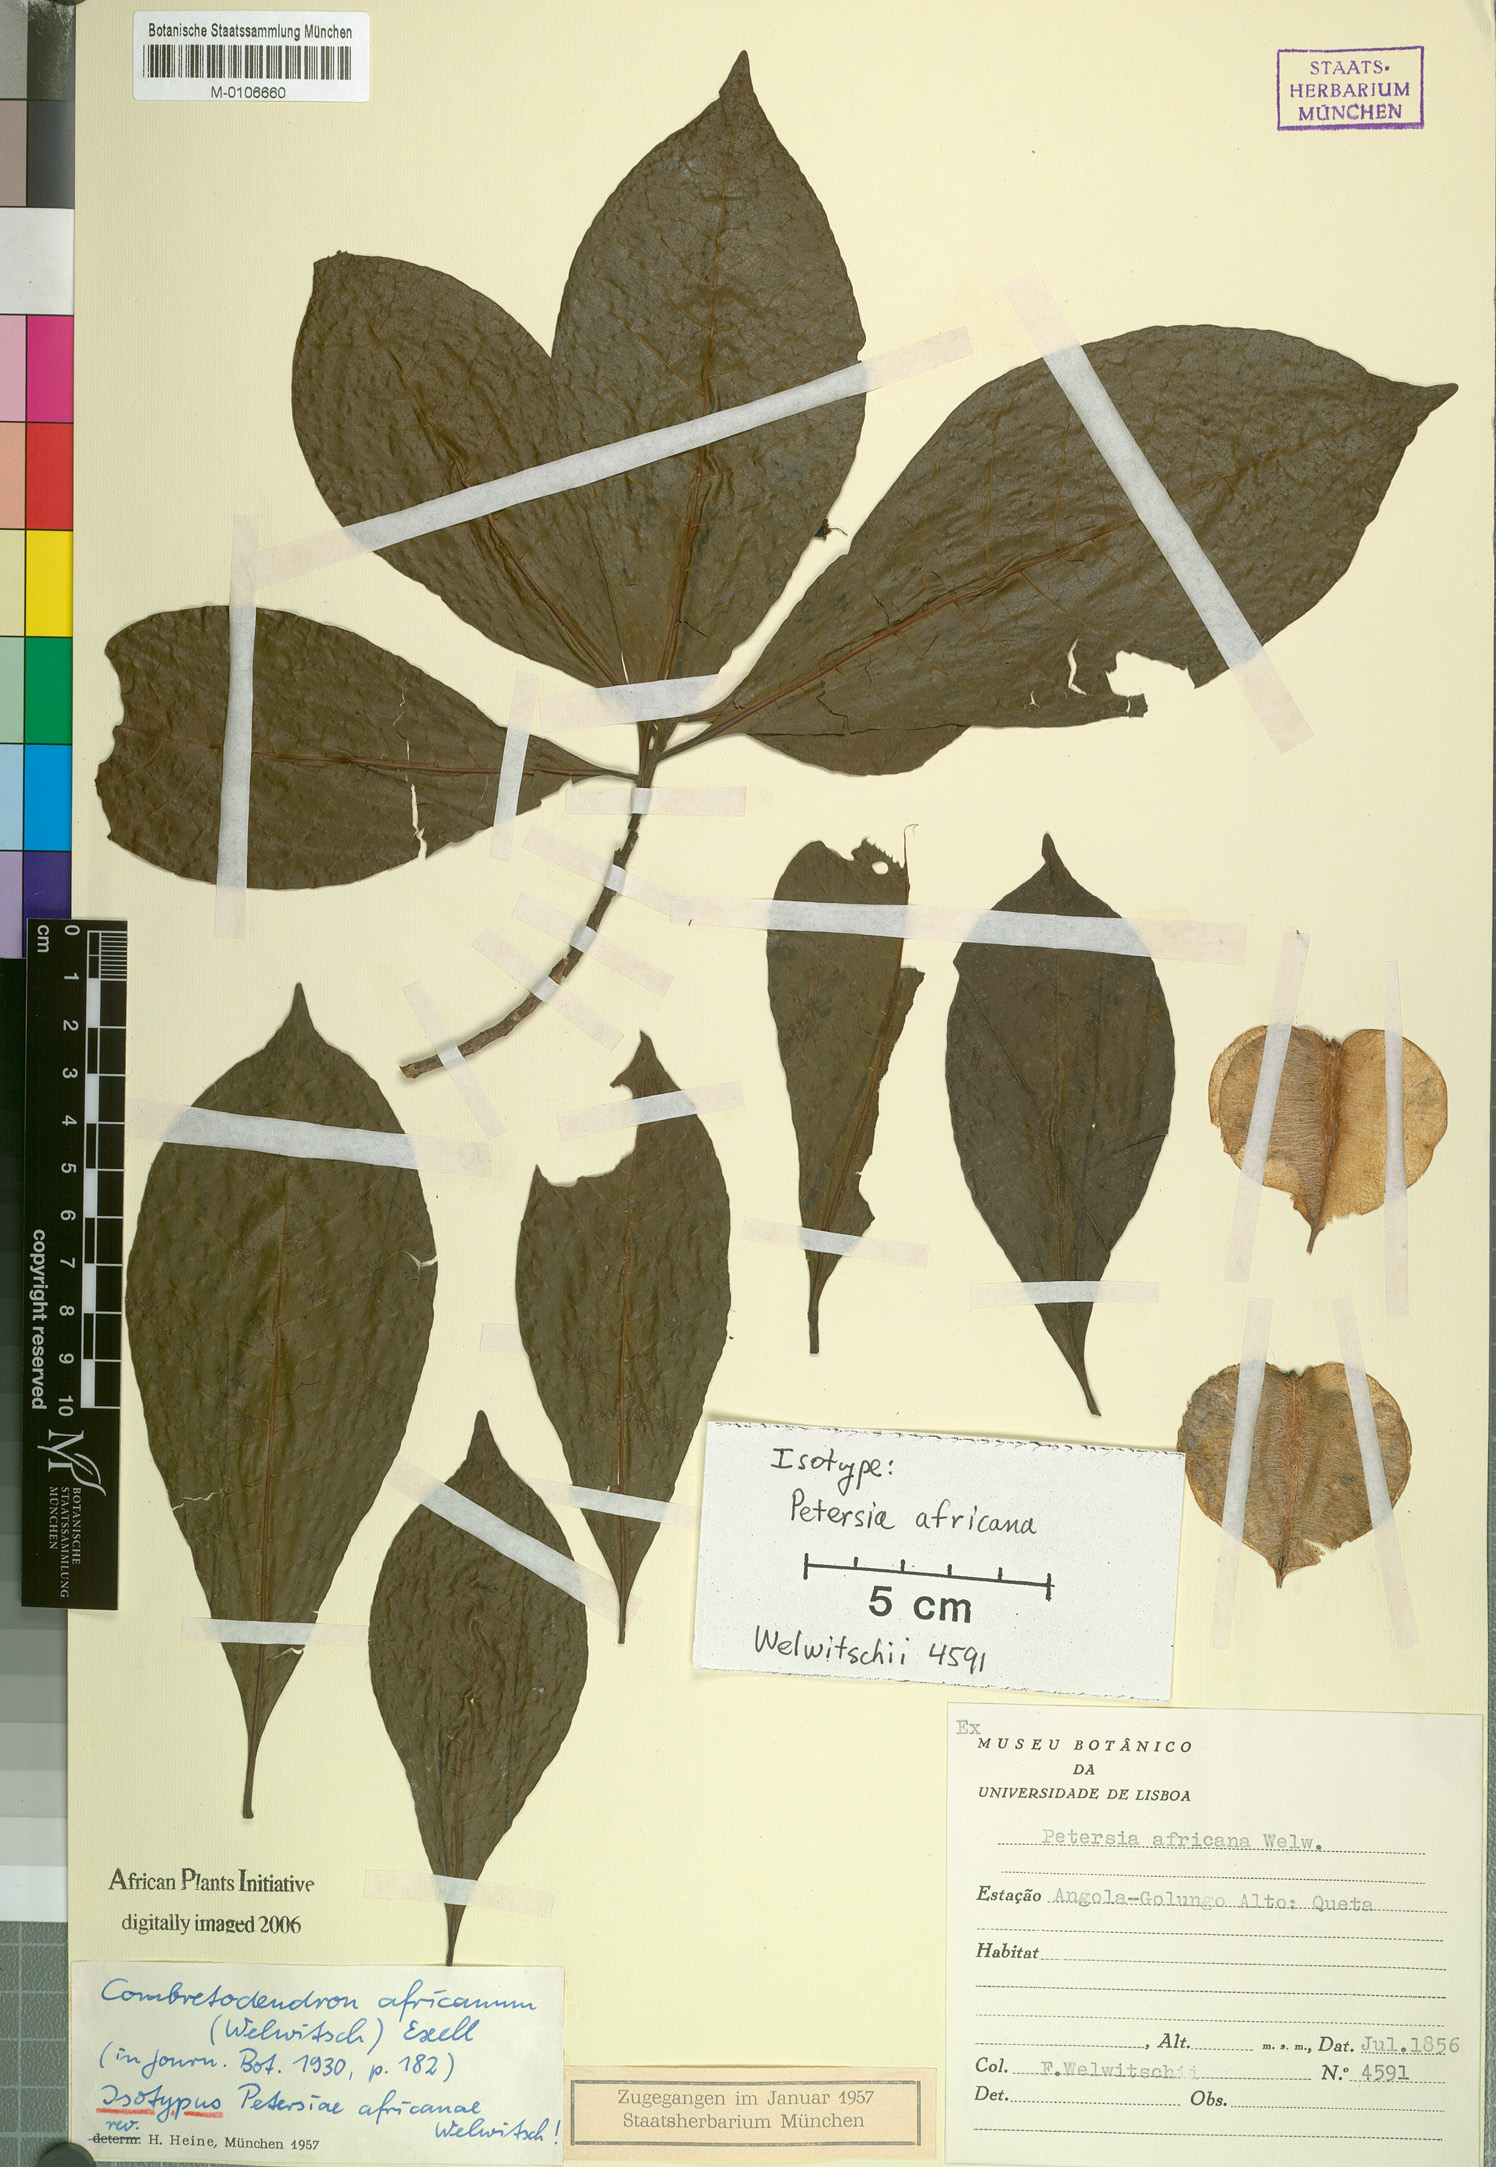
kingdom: Plantae
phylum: Tracheophyta
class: Magnoliopsida
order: Ericales
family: Lecythidaceae
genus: Petersianthus
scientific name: Petersianthus macrocarpus
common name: Essia
